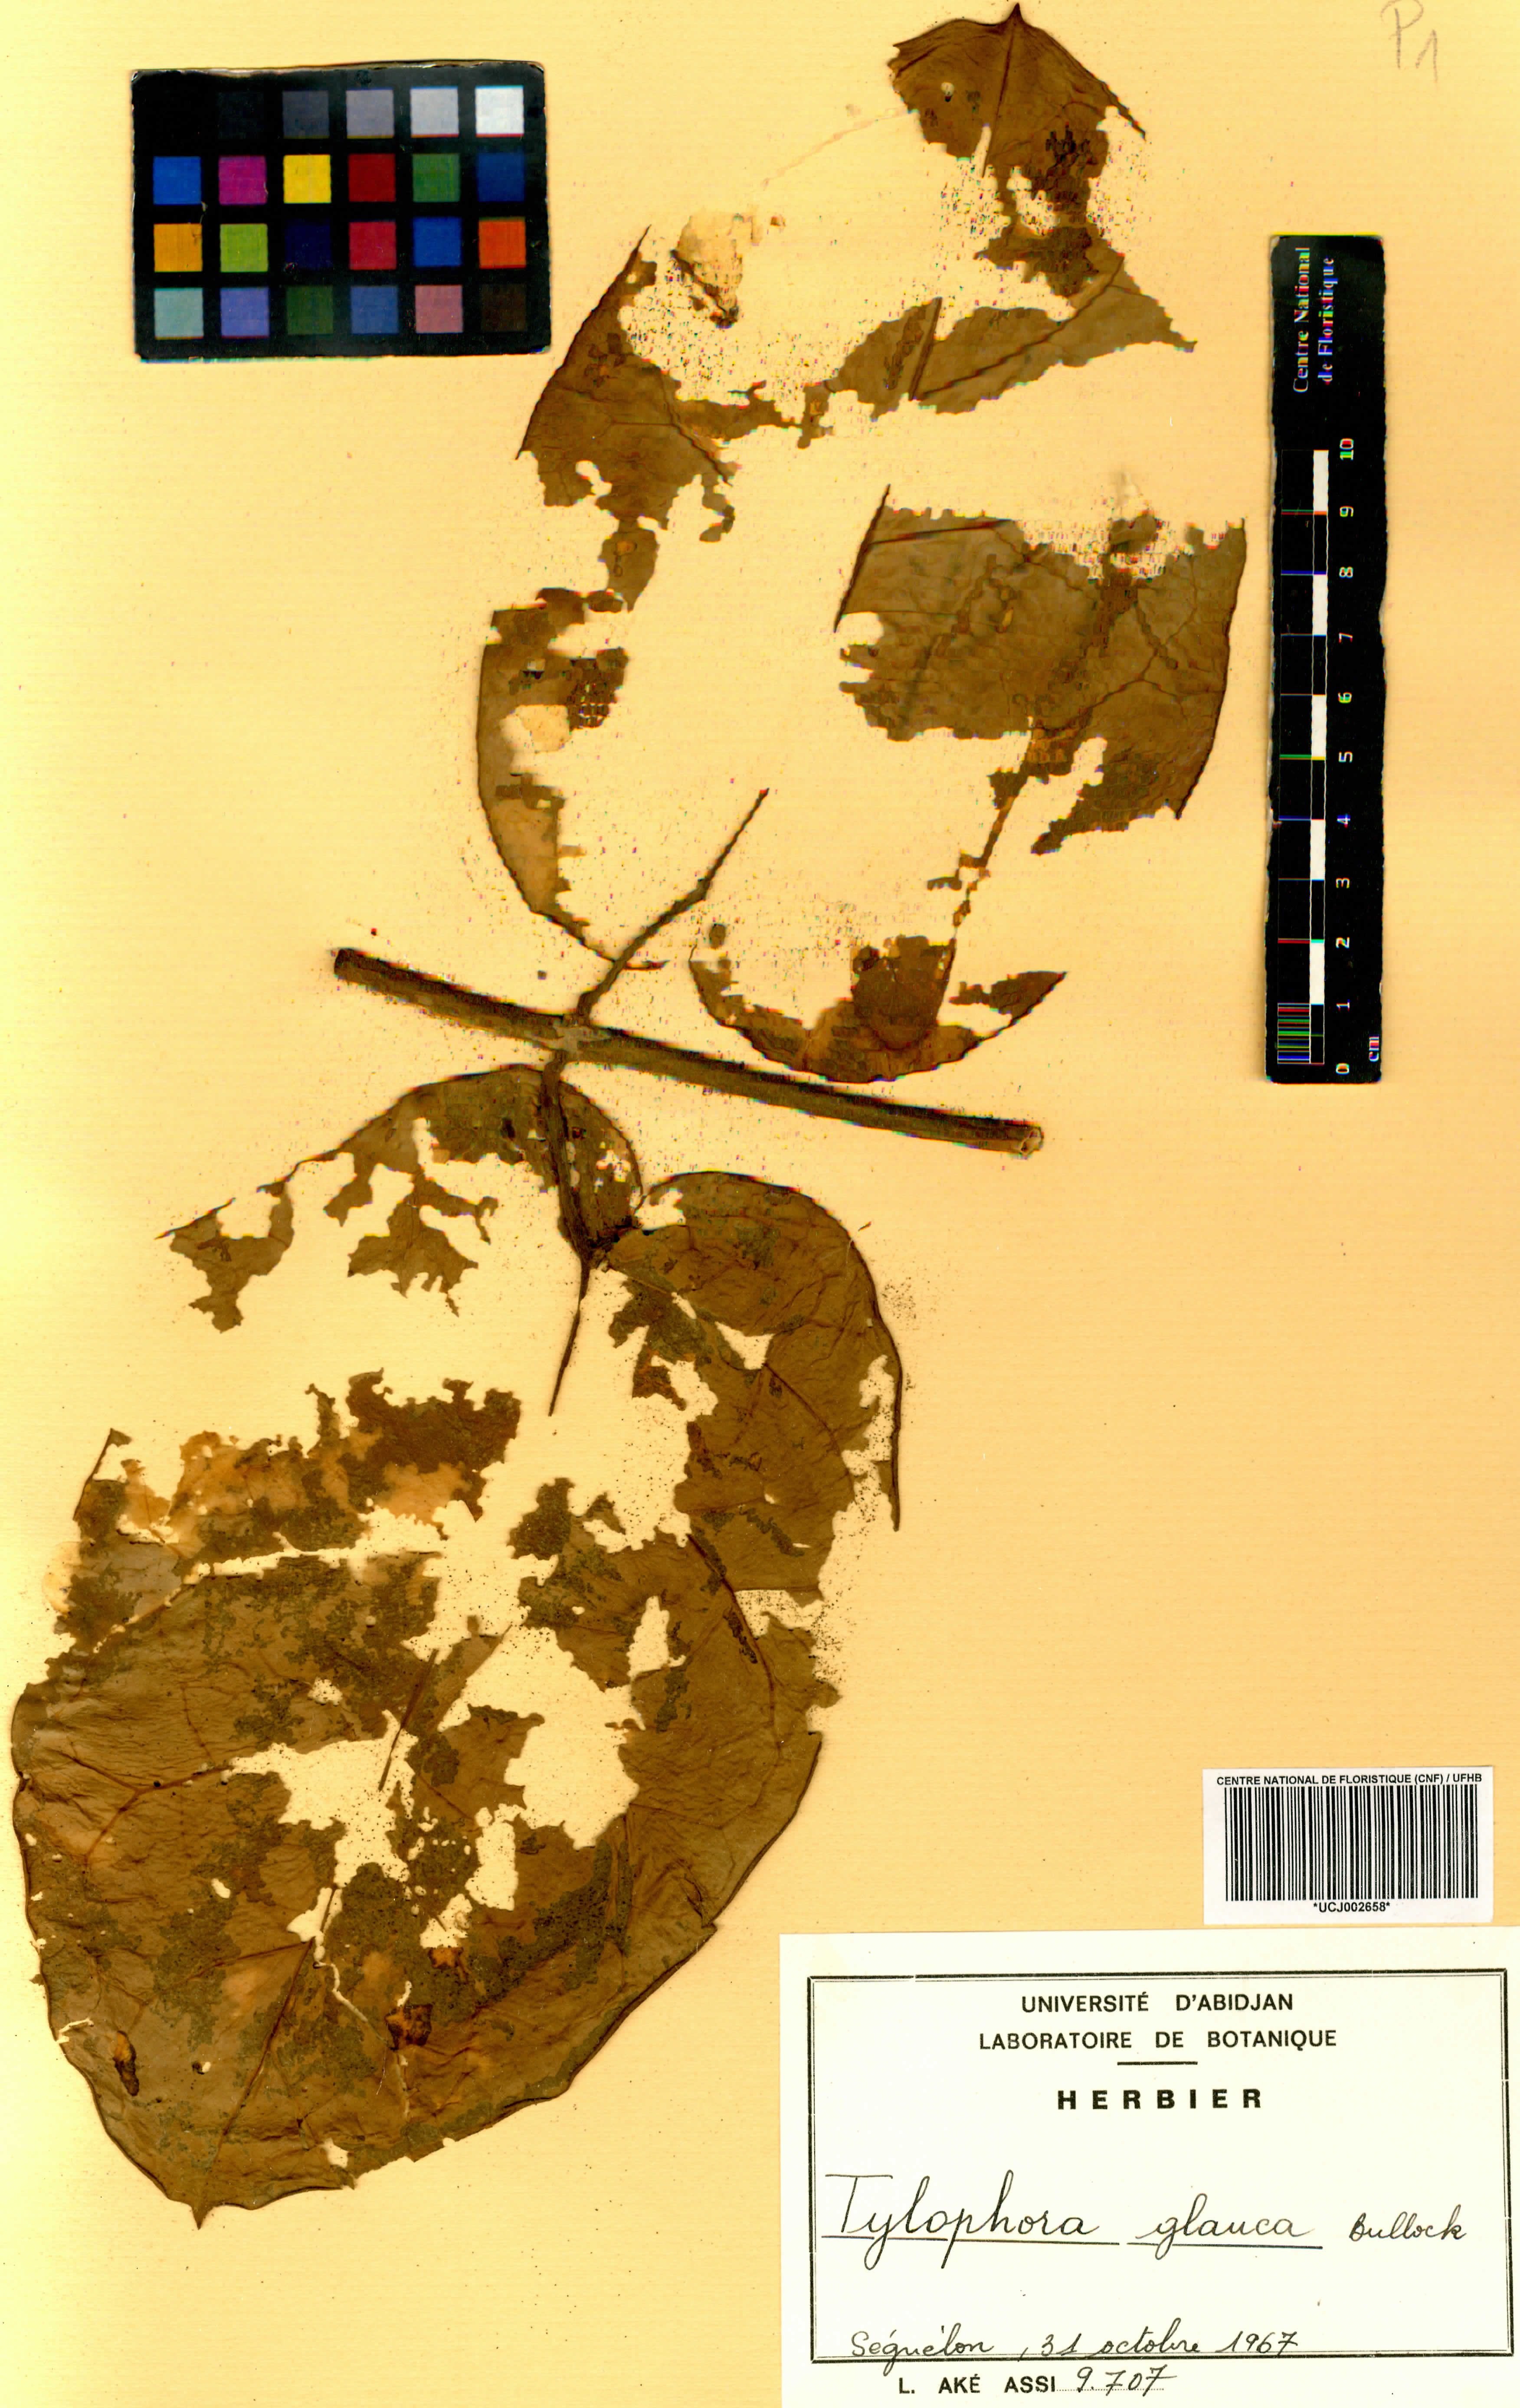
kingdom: Plantae
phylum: Tracheophyta
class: Magnoliopsida
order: Gentianales
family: Apocynaceae
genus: Vincetoxicum
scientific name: Vincetoxicum cameroonicum
